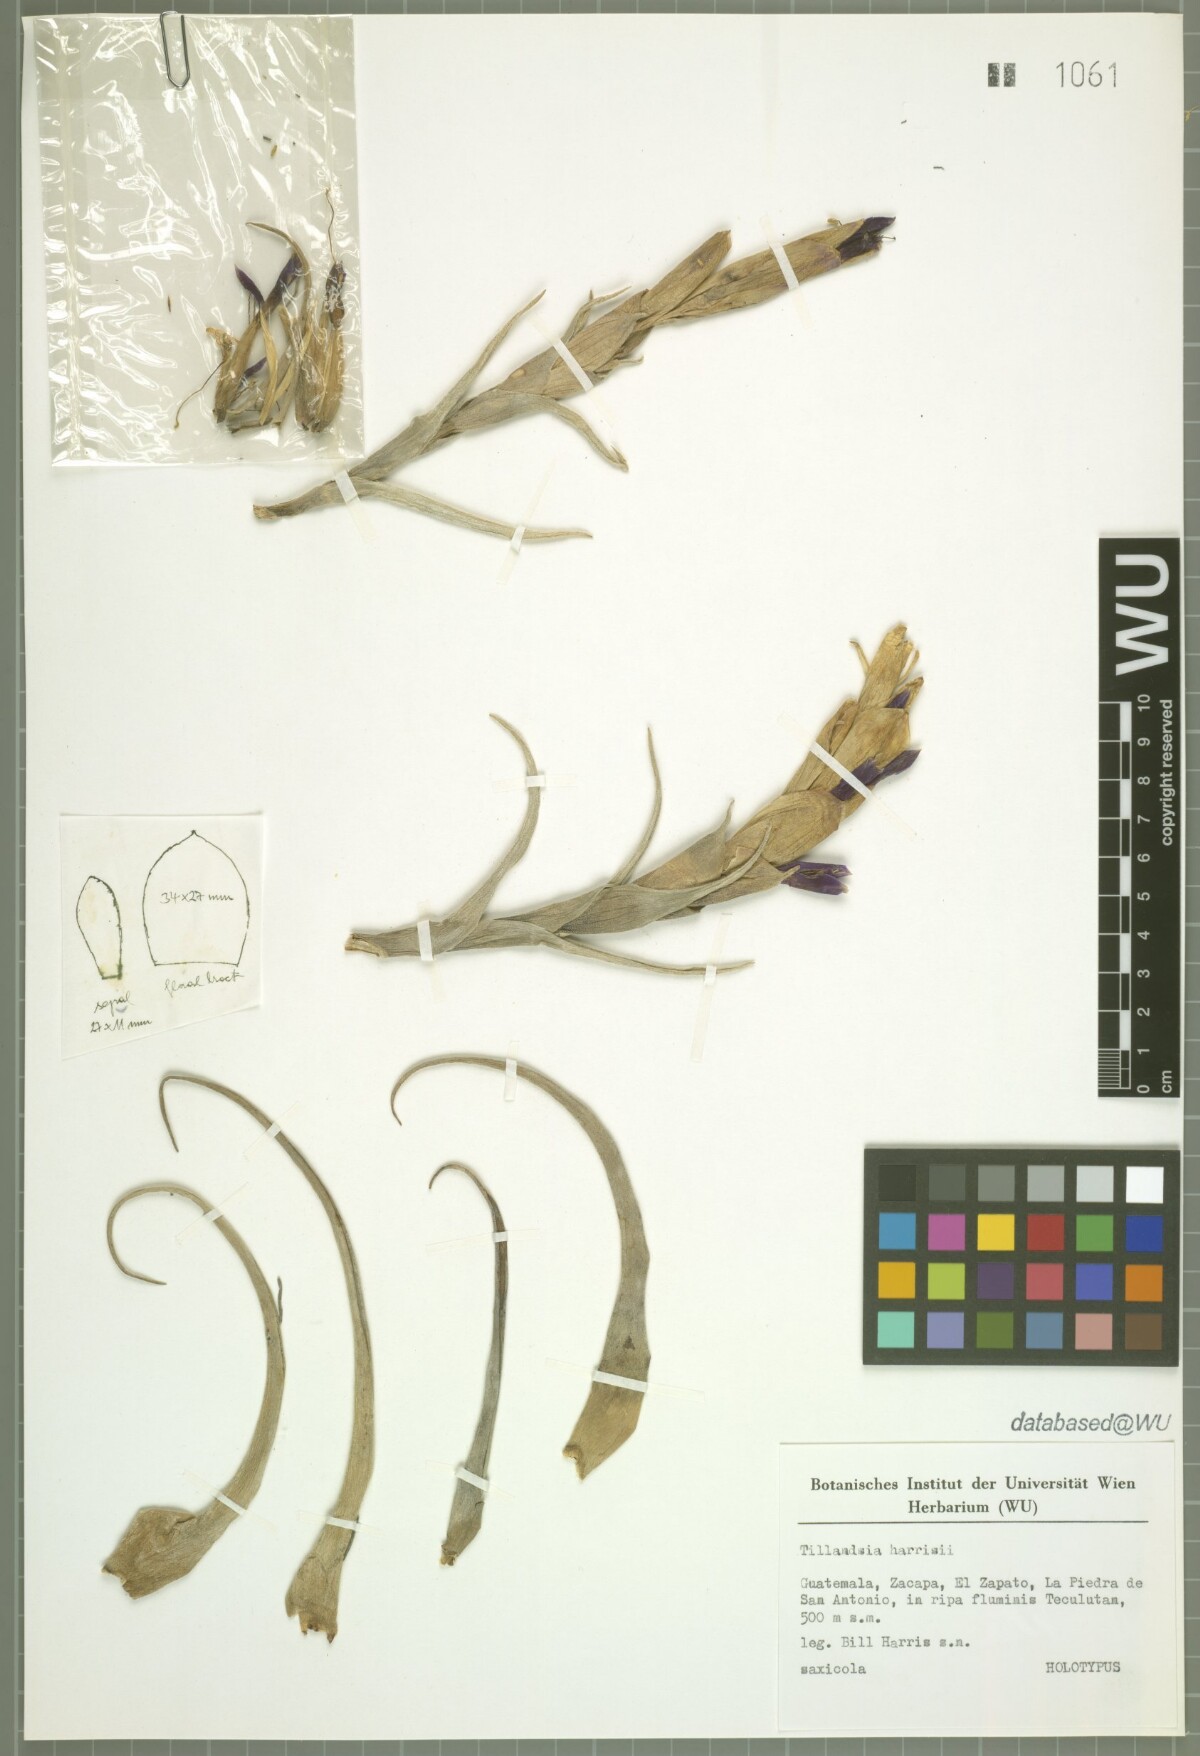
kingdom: Plantae
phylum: Tracheophyta
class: Liliopsida
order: Poales
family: Bromeliaceae
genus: Tillandsia
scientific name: Tillandsia harrisii
